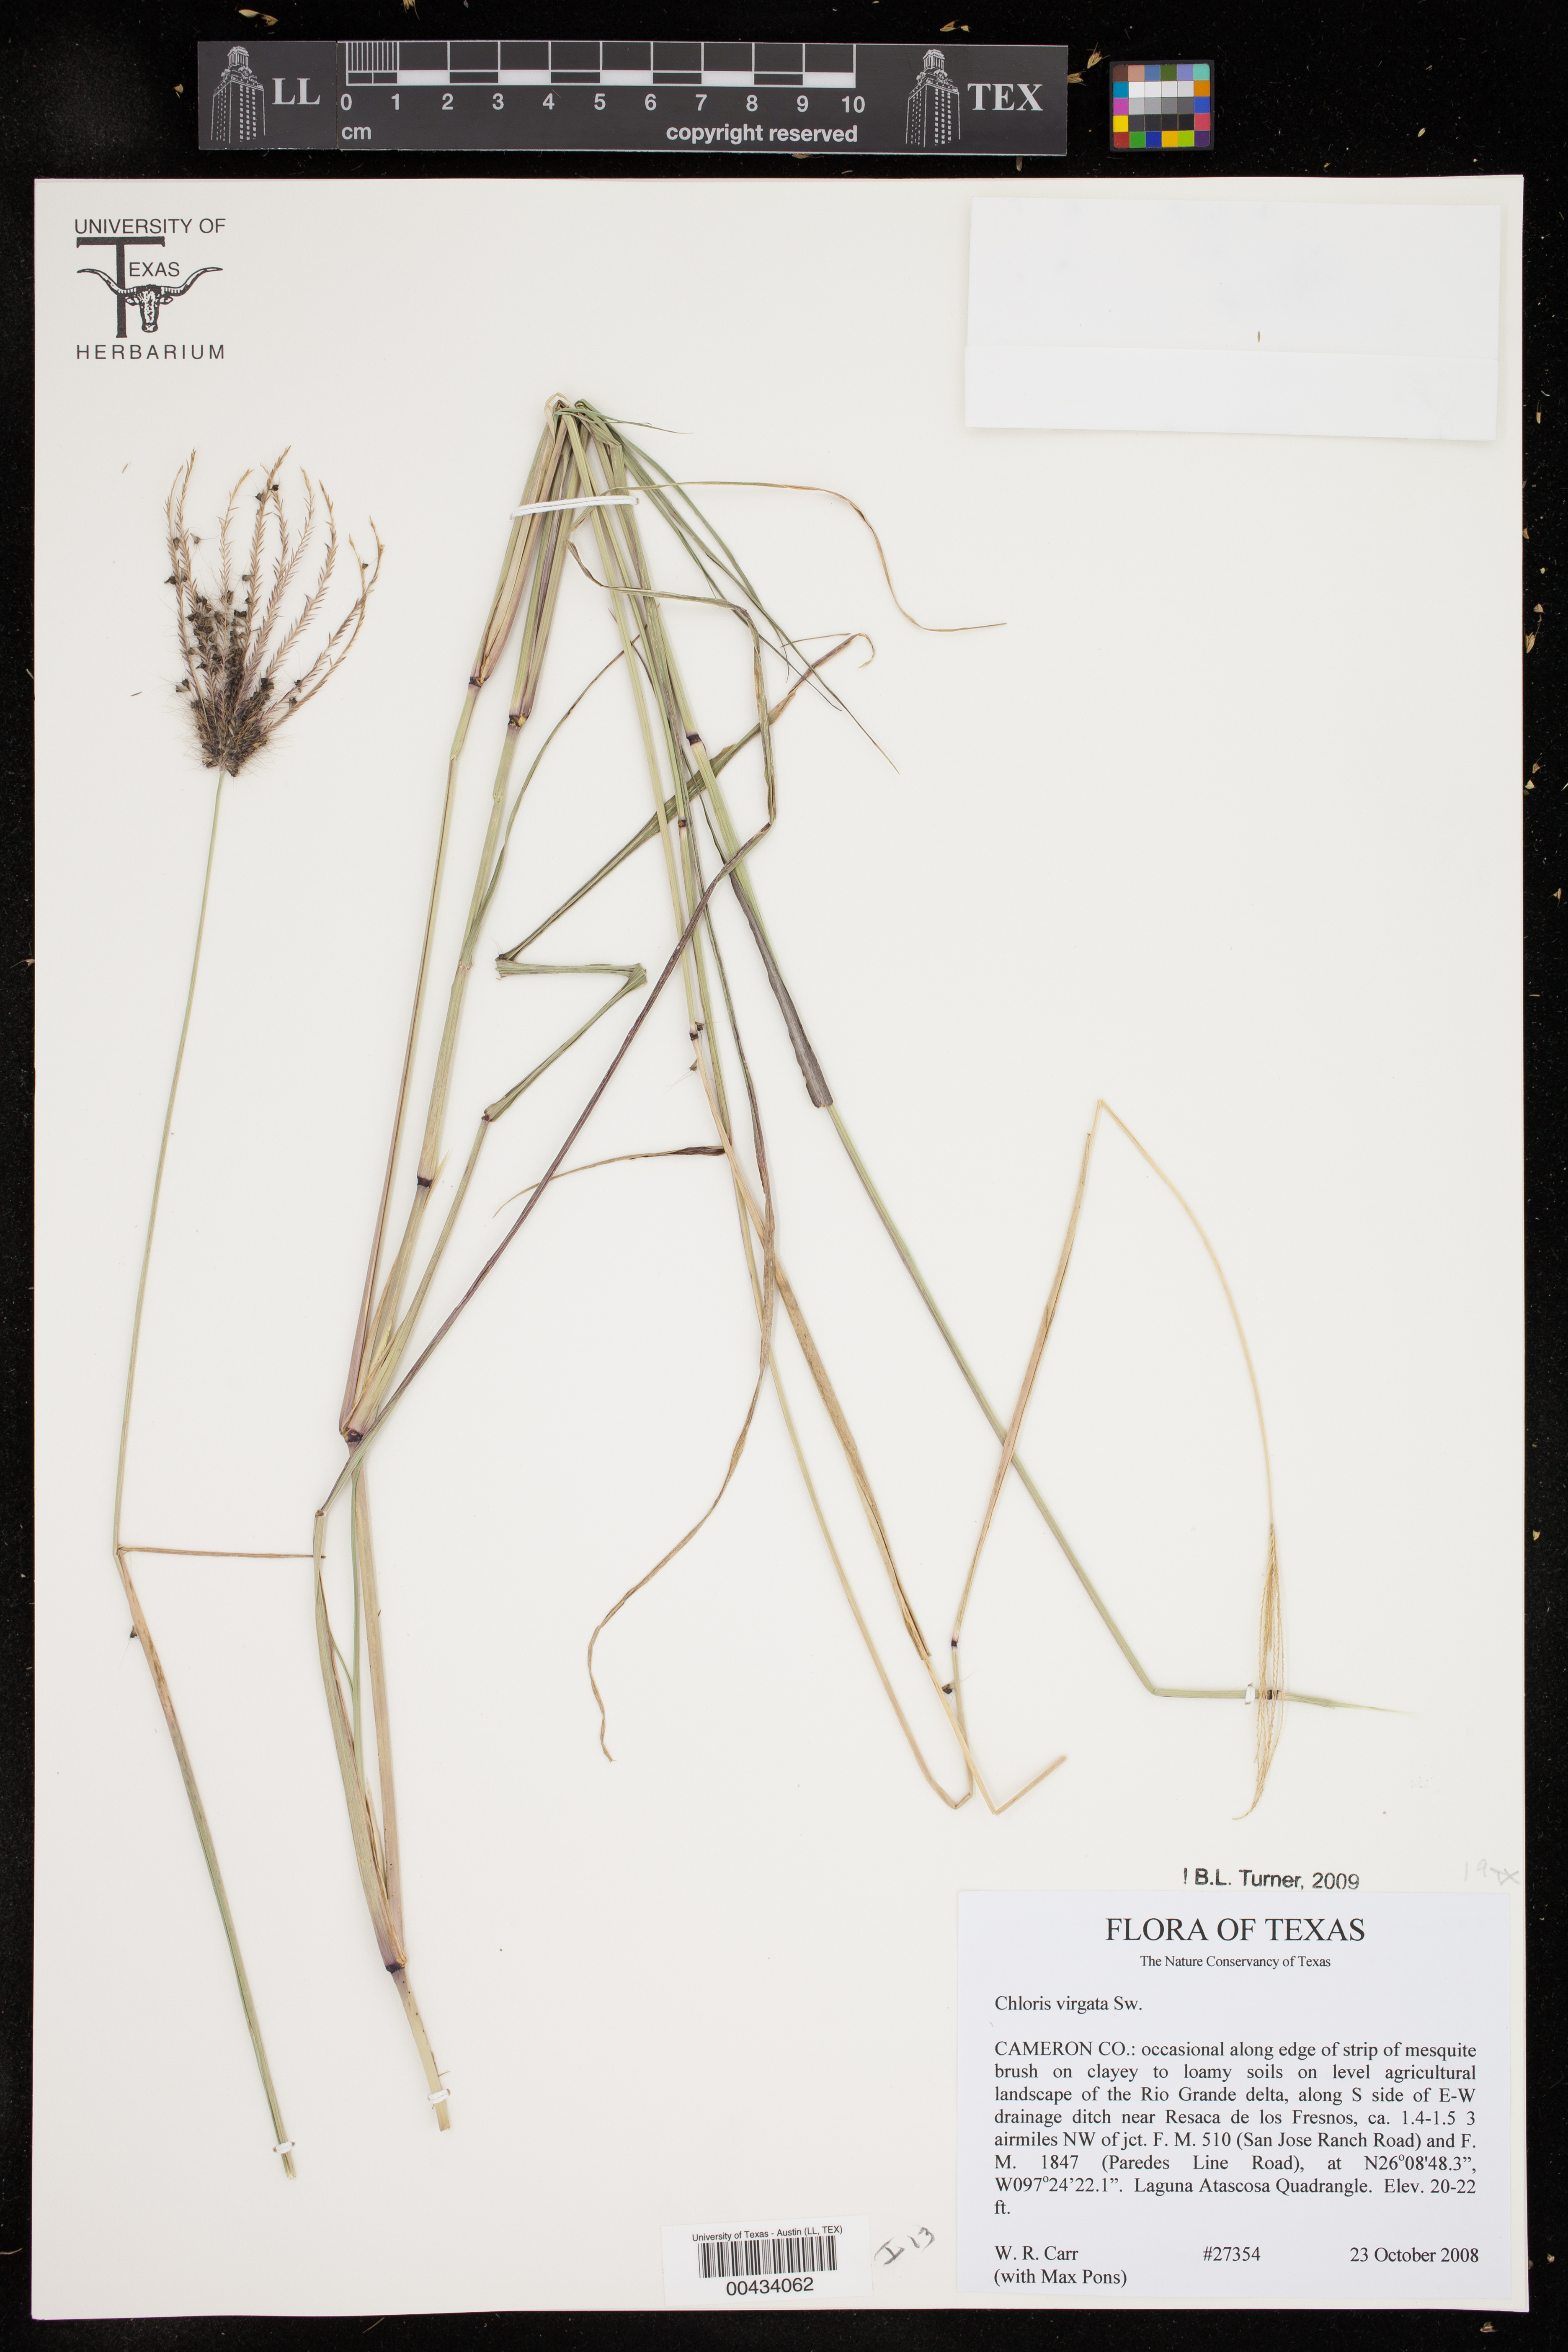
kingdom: Plantae
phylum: Tracheophyta
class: Liliopsida
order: Poales
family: Poaceae
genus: Chloris
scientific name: Chloris virgata
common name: Feathery rhodes-grass
